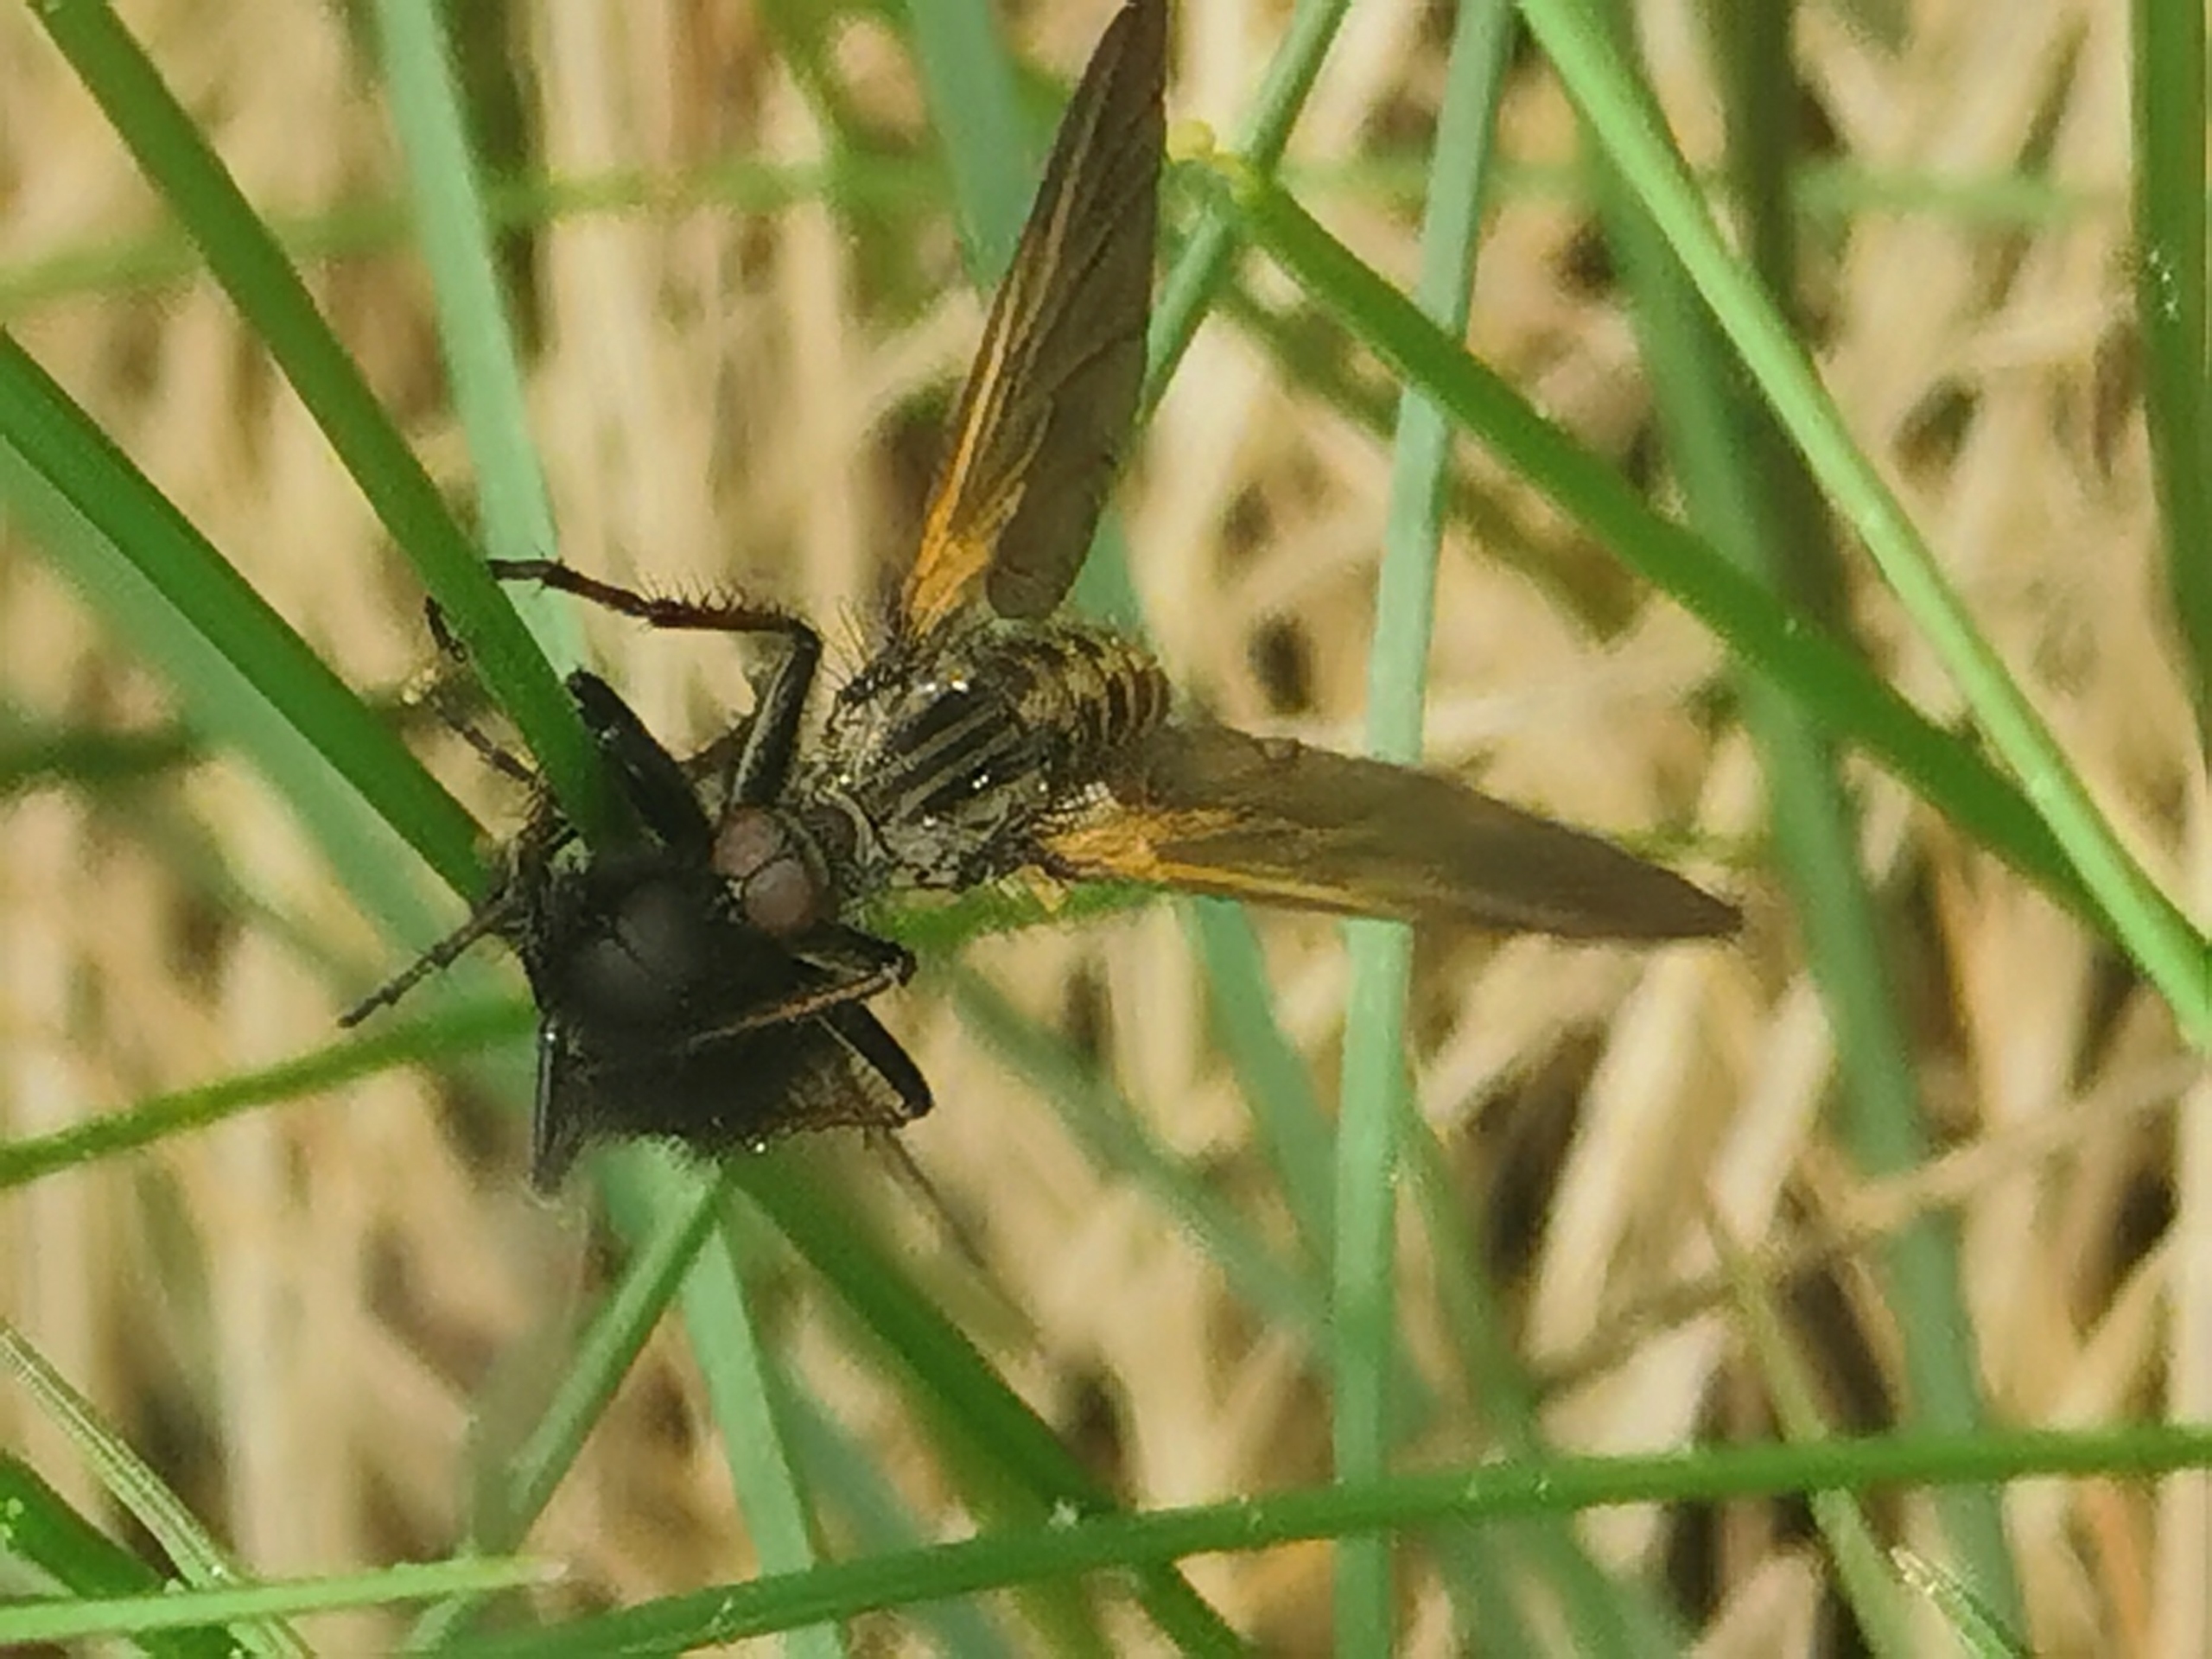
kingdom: Animalia
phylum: Arthropoda
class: Insecta
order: Diptera
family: Empididae
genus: Empis
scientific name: Empis tessellata
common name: Stor danseflue
